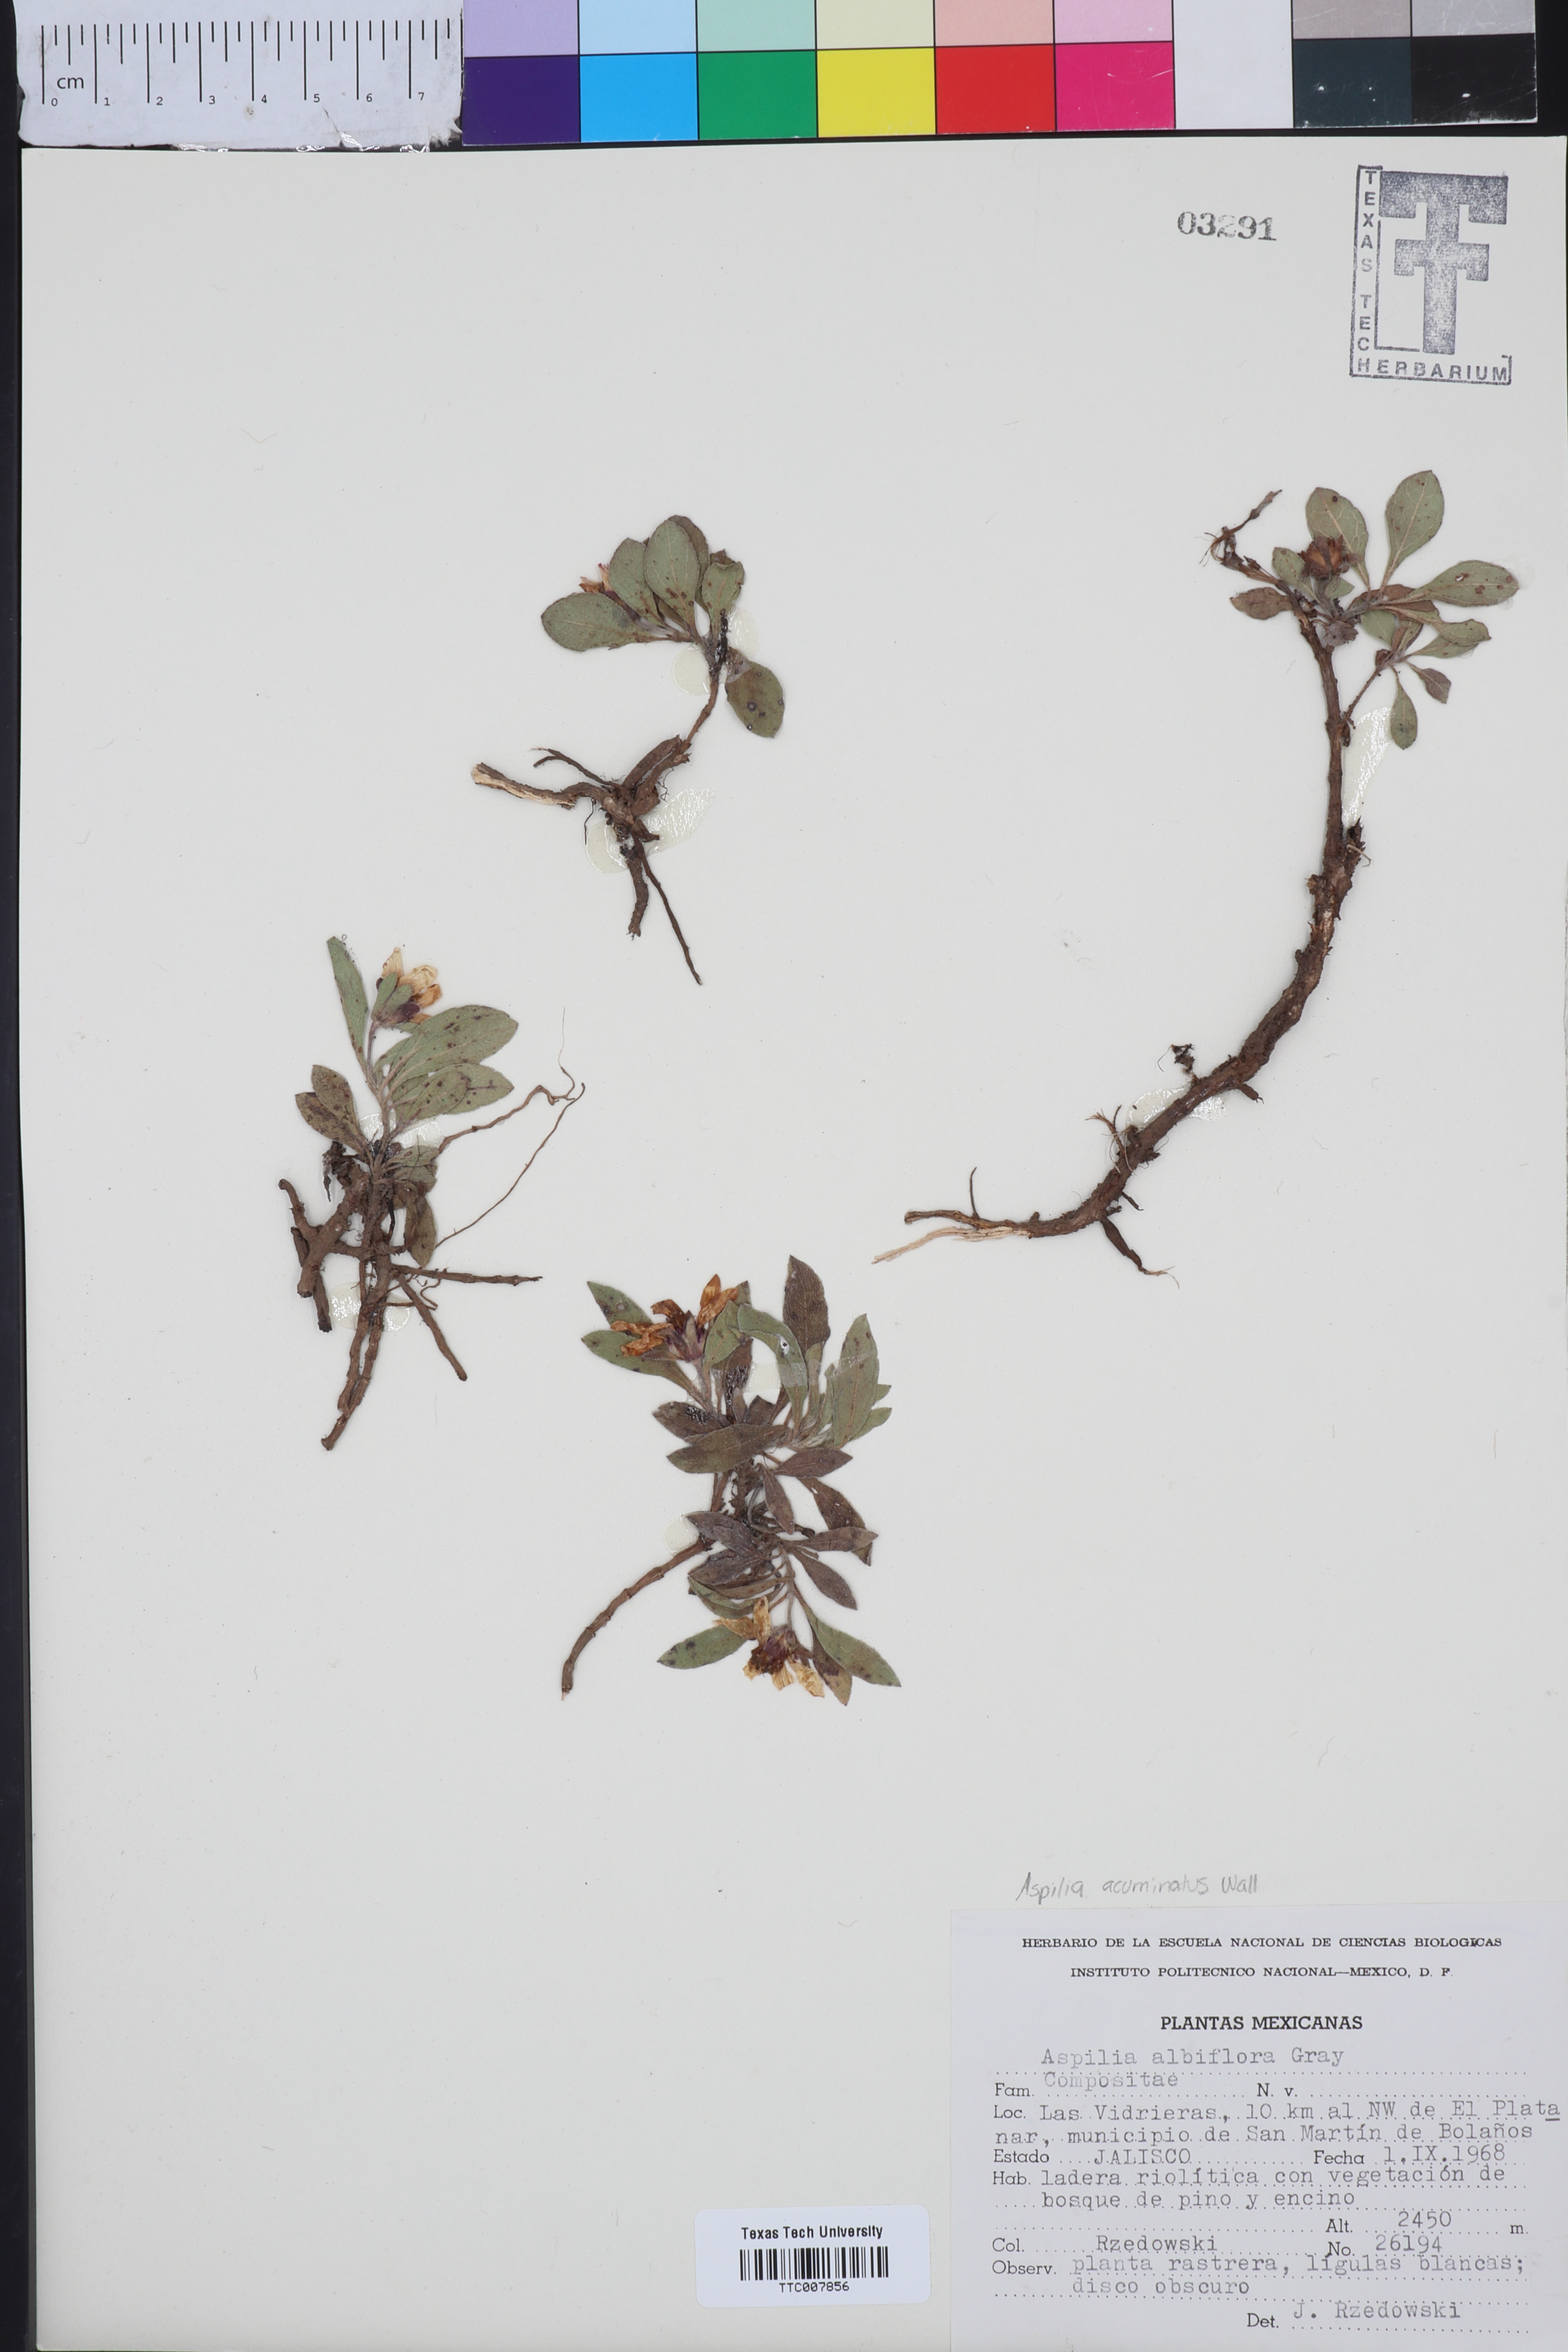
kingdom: Plantae
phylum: Tracheophyta
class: Magnoliopsida
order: Asterales
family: Asteraceae
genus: Wedelia
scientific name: Wedelia grayi
